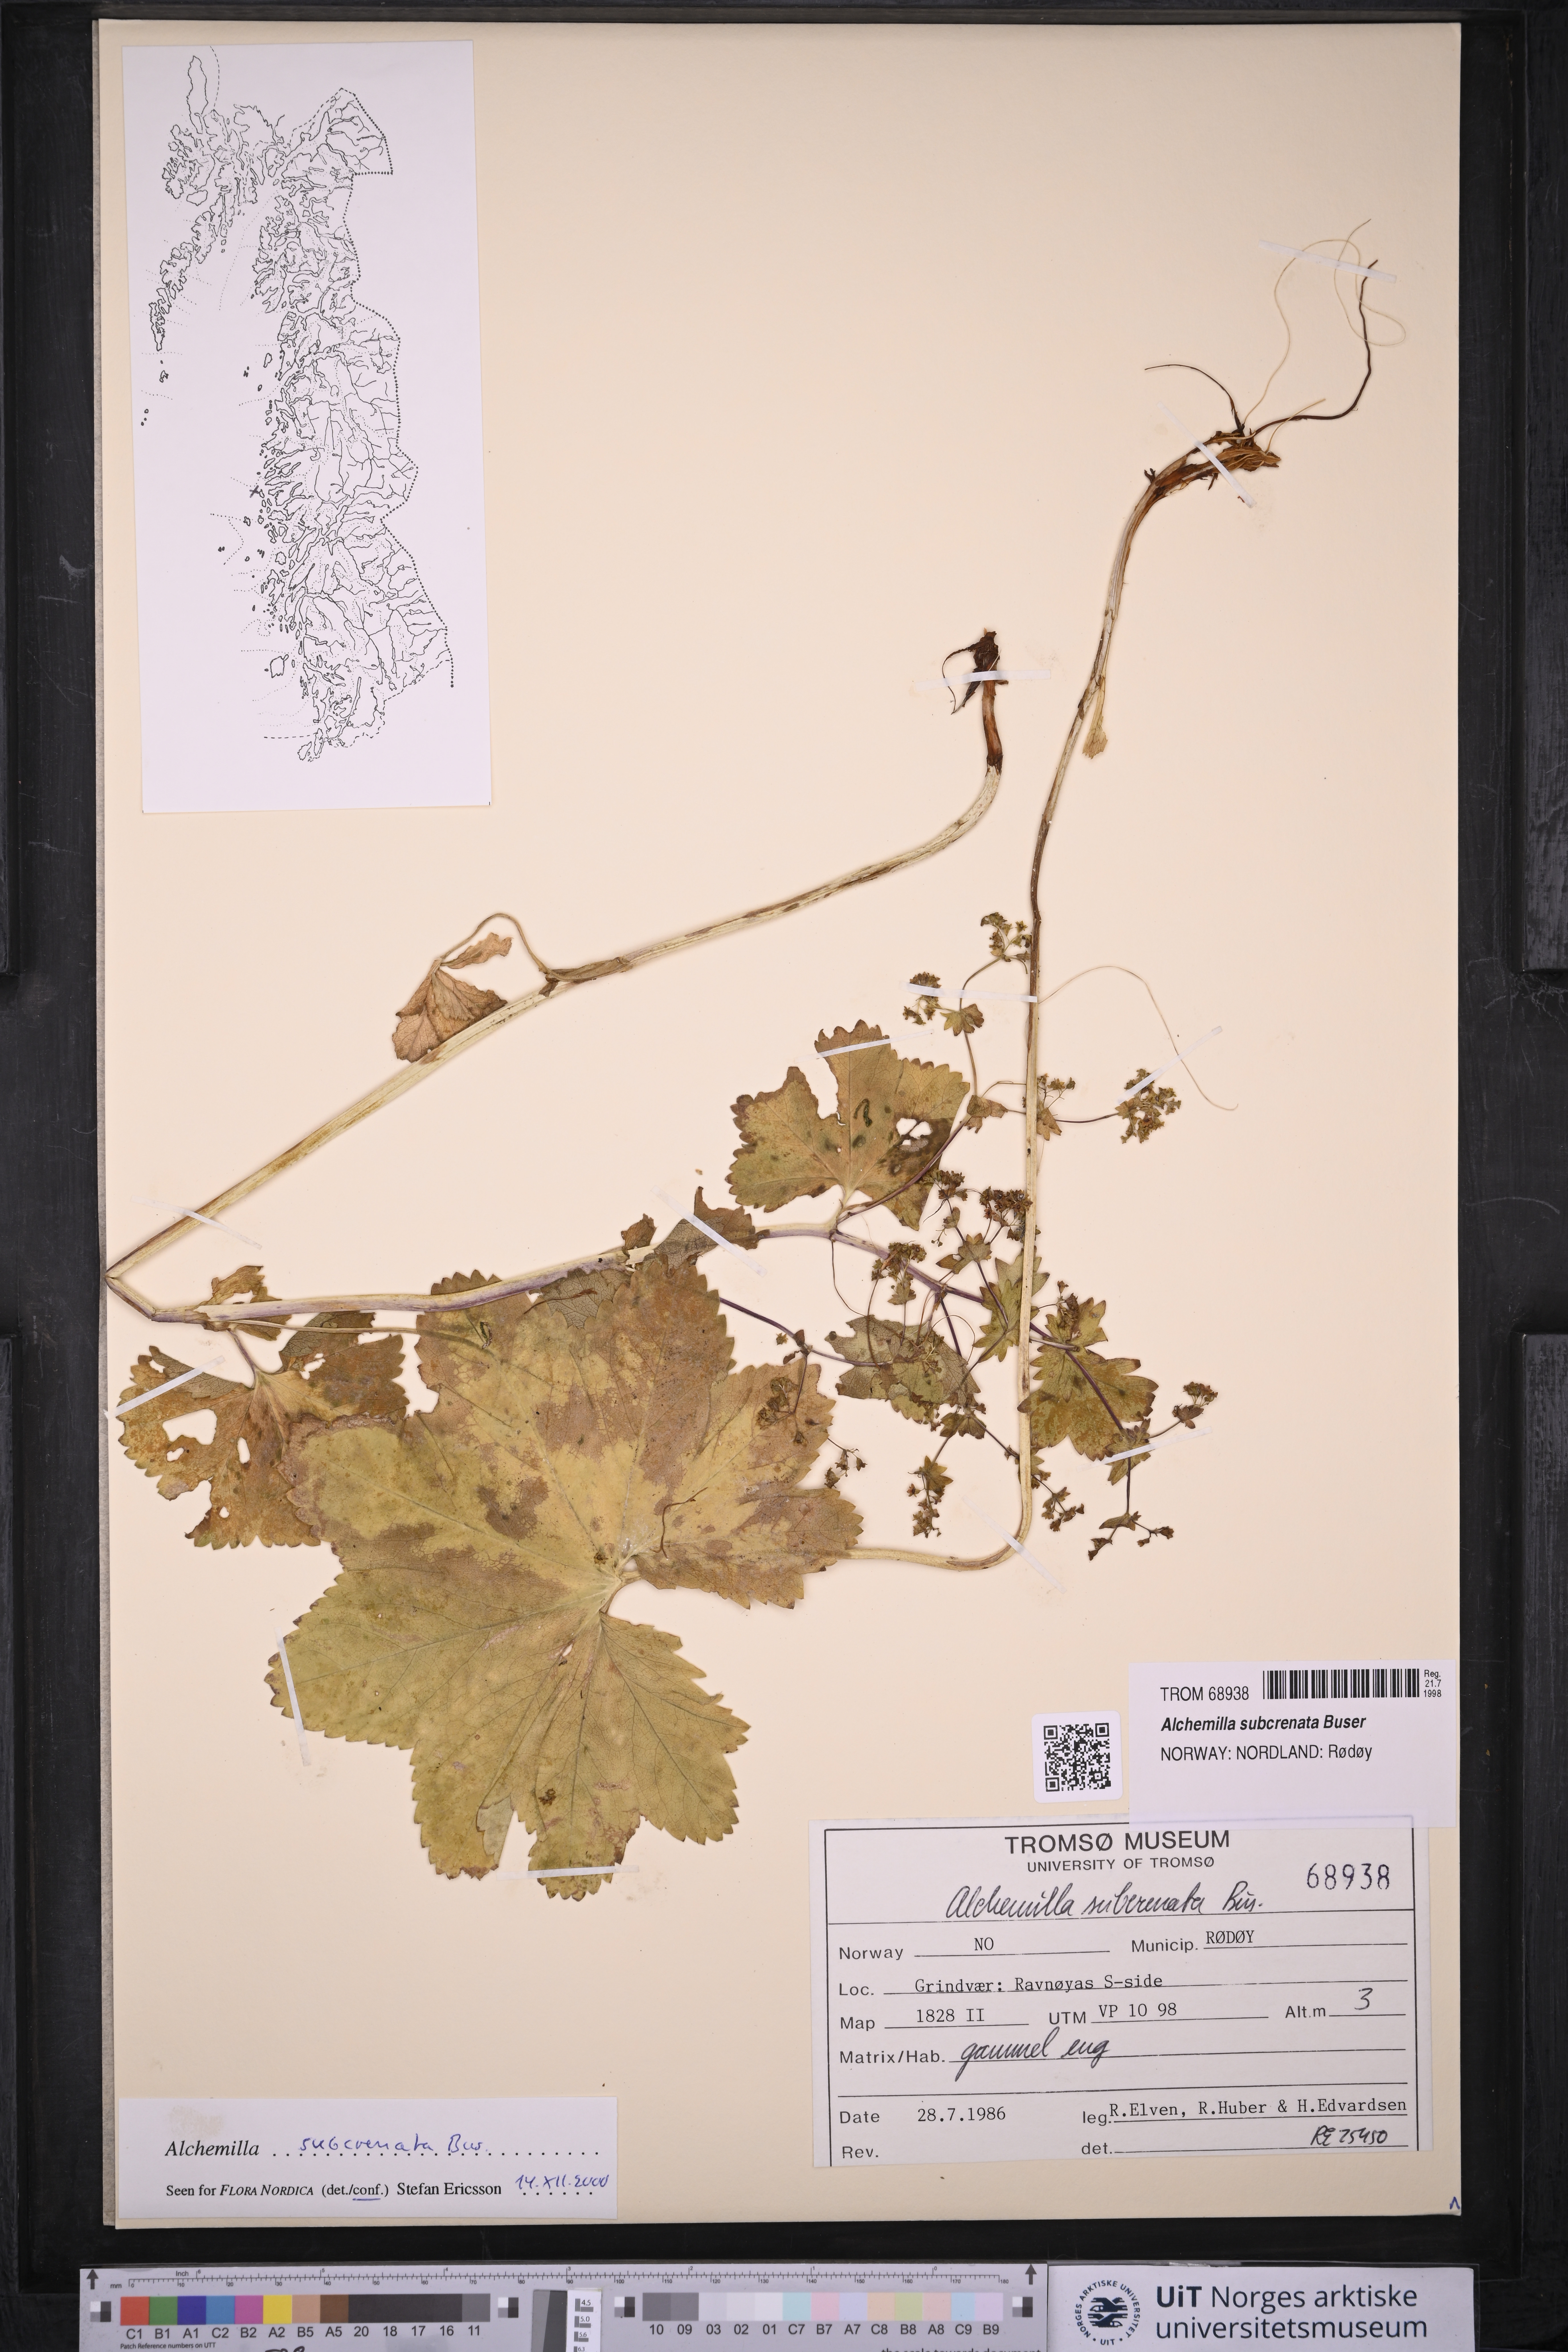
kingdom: Plantae
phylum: Tracheophyta
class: Magnoliopsida
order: Rosales
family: Rosaceae
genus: Alchemilla
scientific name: Alchemilla subcrenata
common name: Broadtooth lady's mantle
